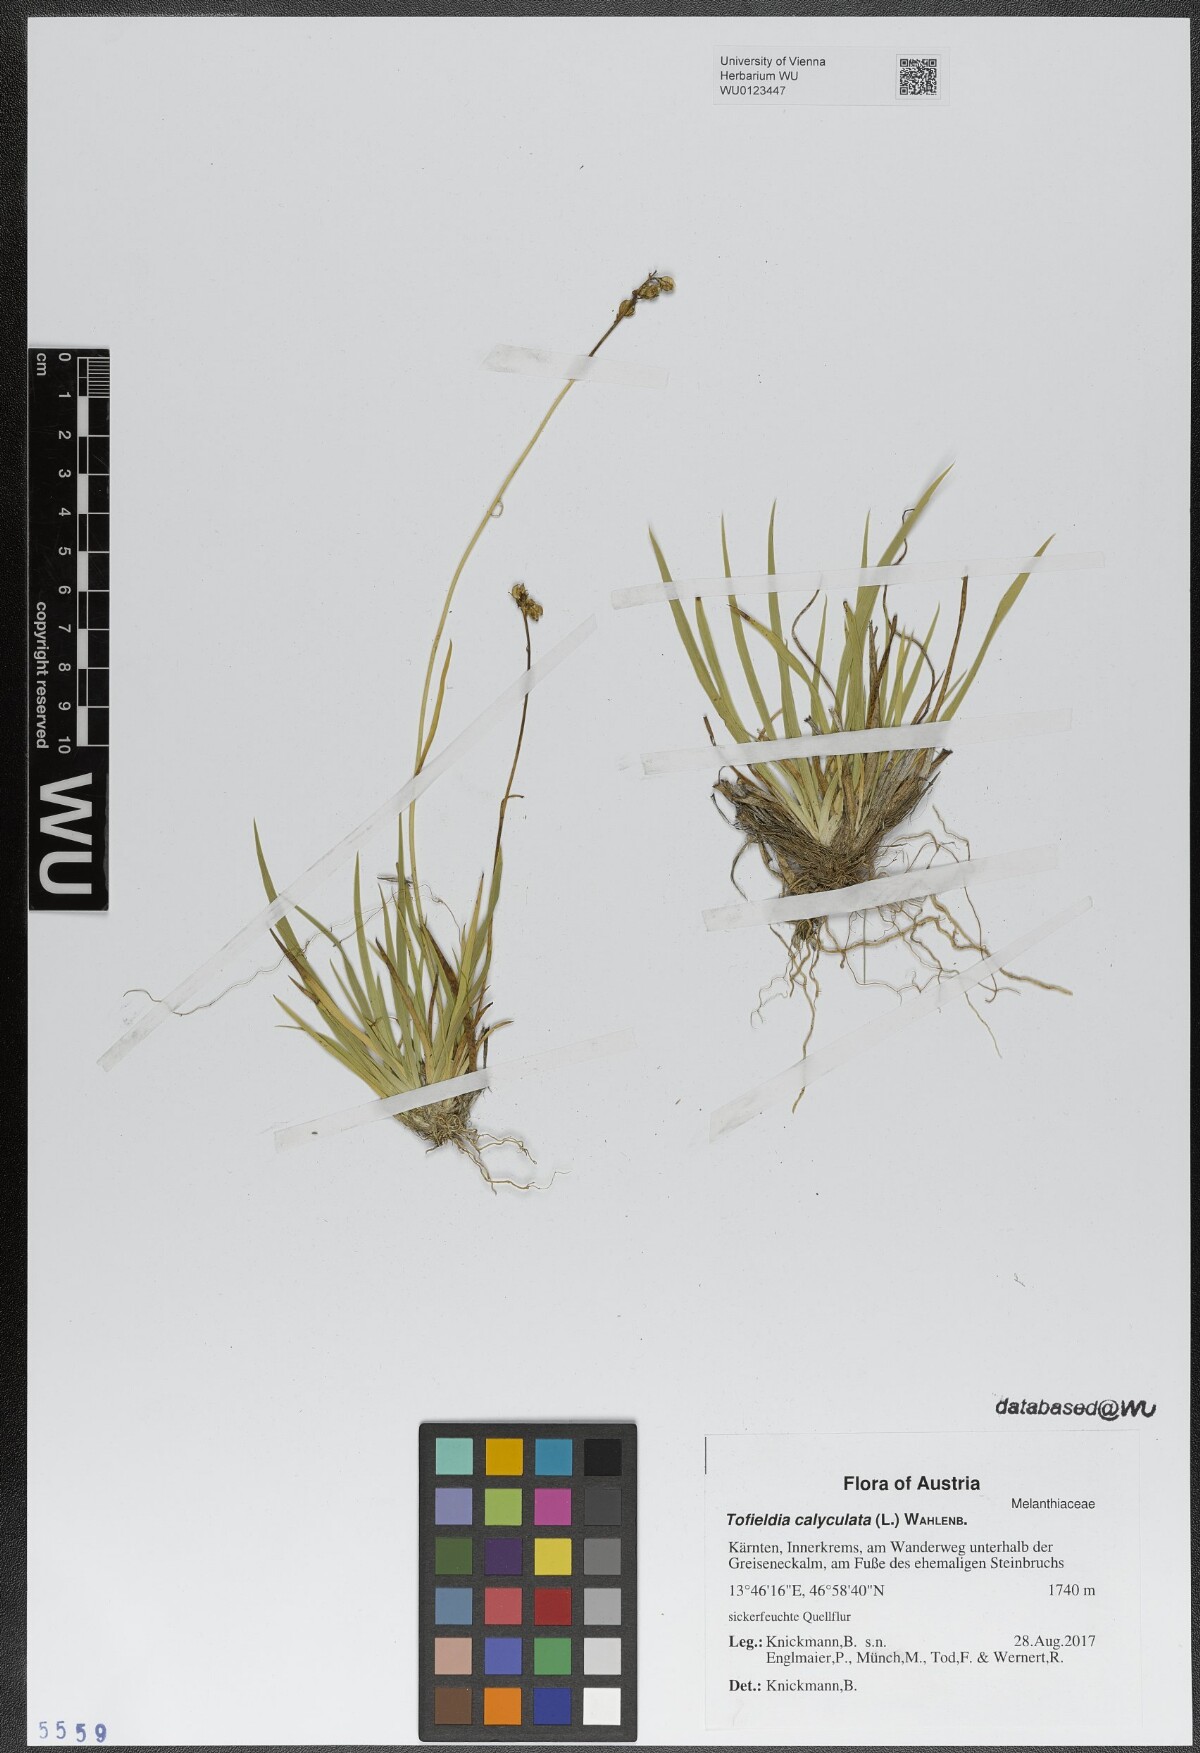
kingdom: Plantae
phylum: Tracheophyta
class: Liliopsida
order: Alismatales
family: Tofieldiaceae
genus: Tofieldia
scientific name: Tofieldia calyculata
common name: German-asphodel
